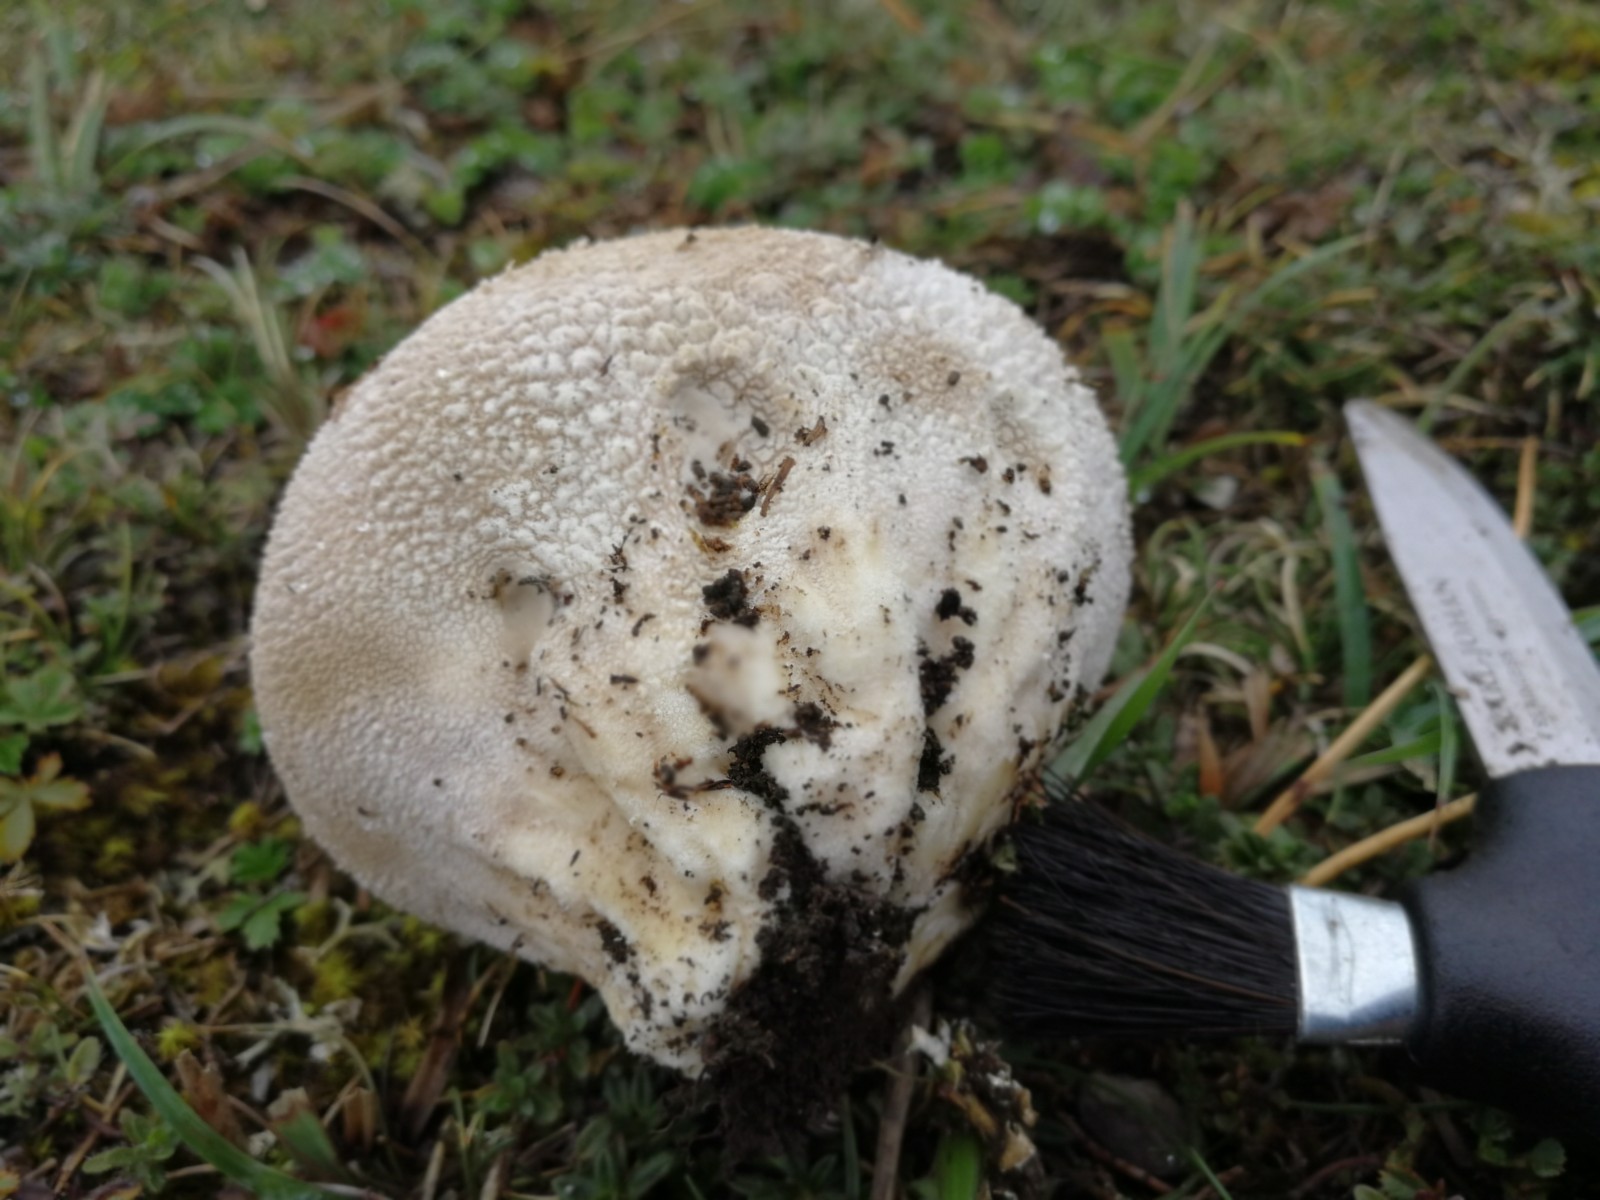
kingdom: Fungi
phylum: Basidiomycota
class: Agaricomycetes
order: Agaricales
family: Lycoperdaceae
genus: Bovistella
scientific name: Bovistella utriformis
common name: skællet støvbold
